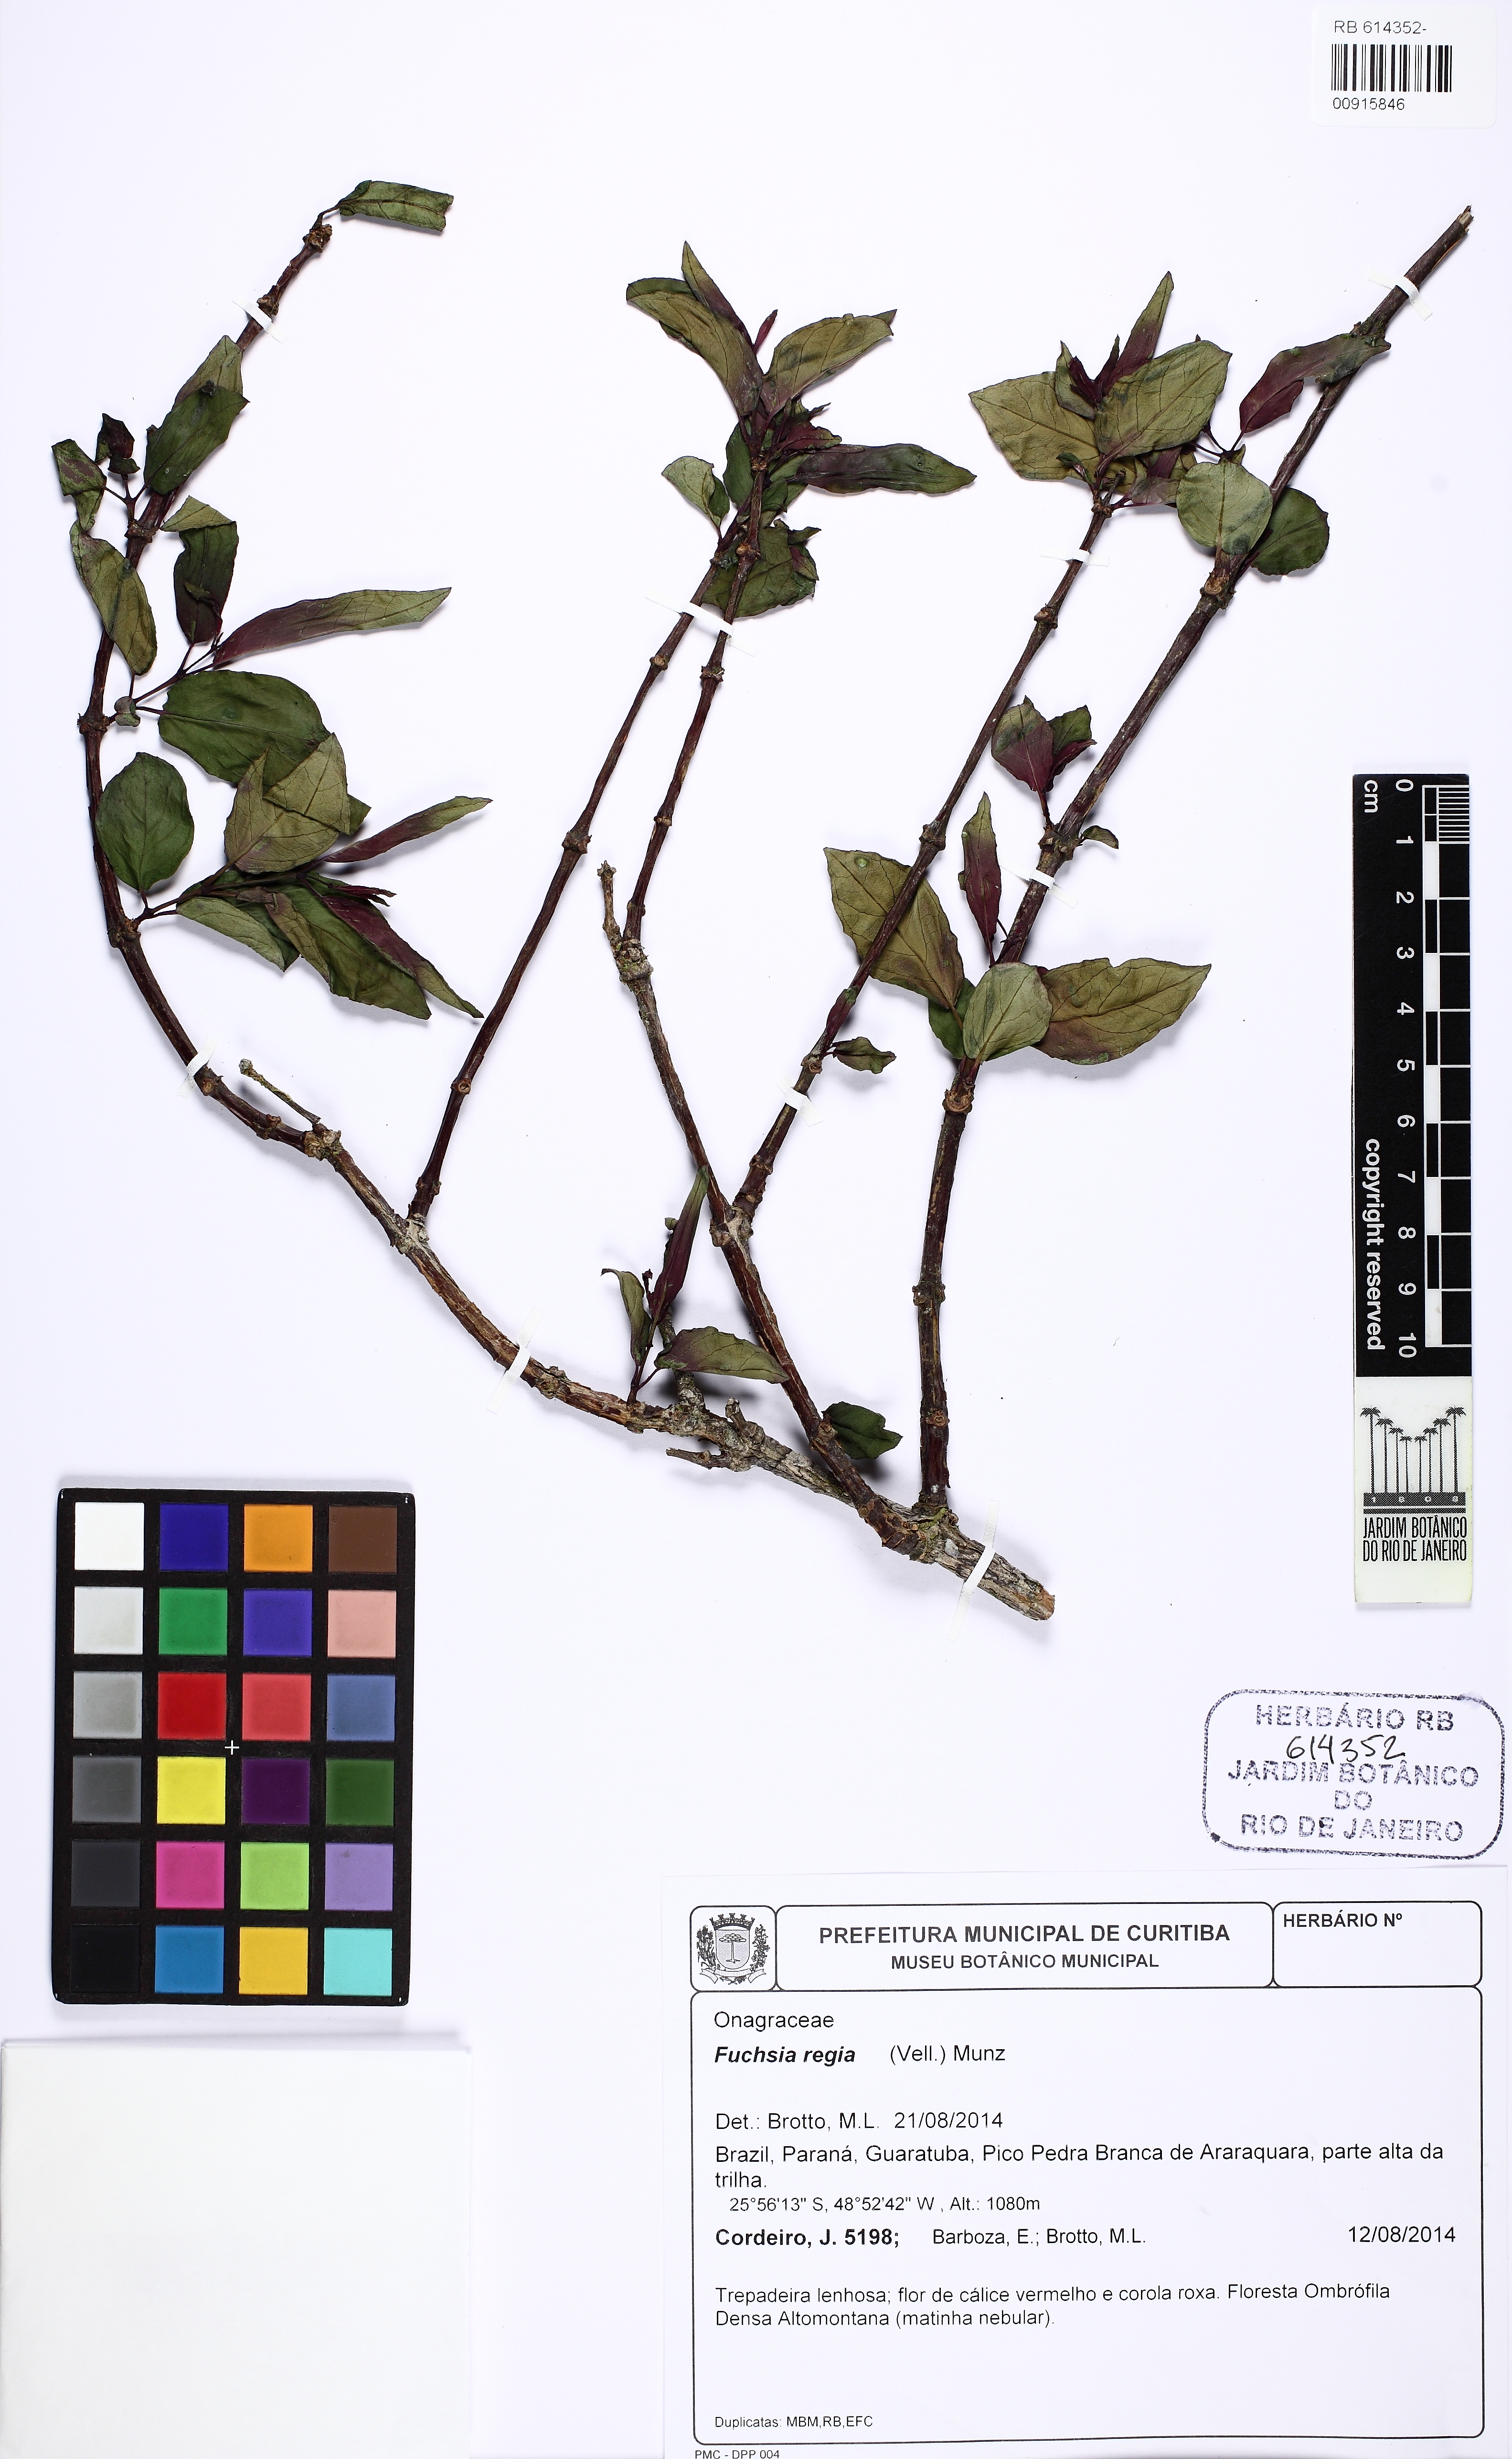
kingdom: Plantae
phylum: Tracheophyta
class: Magnoliopsida
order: Myrtales
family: Onagraceae
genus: Fuchsia
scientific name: Fuchsia regia
